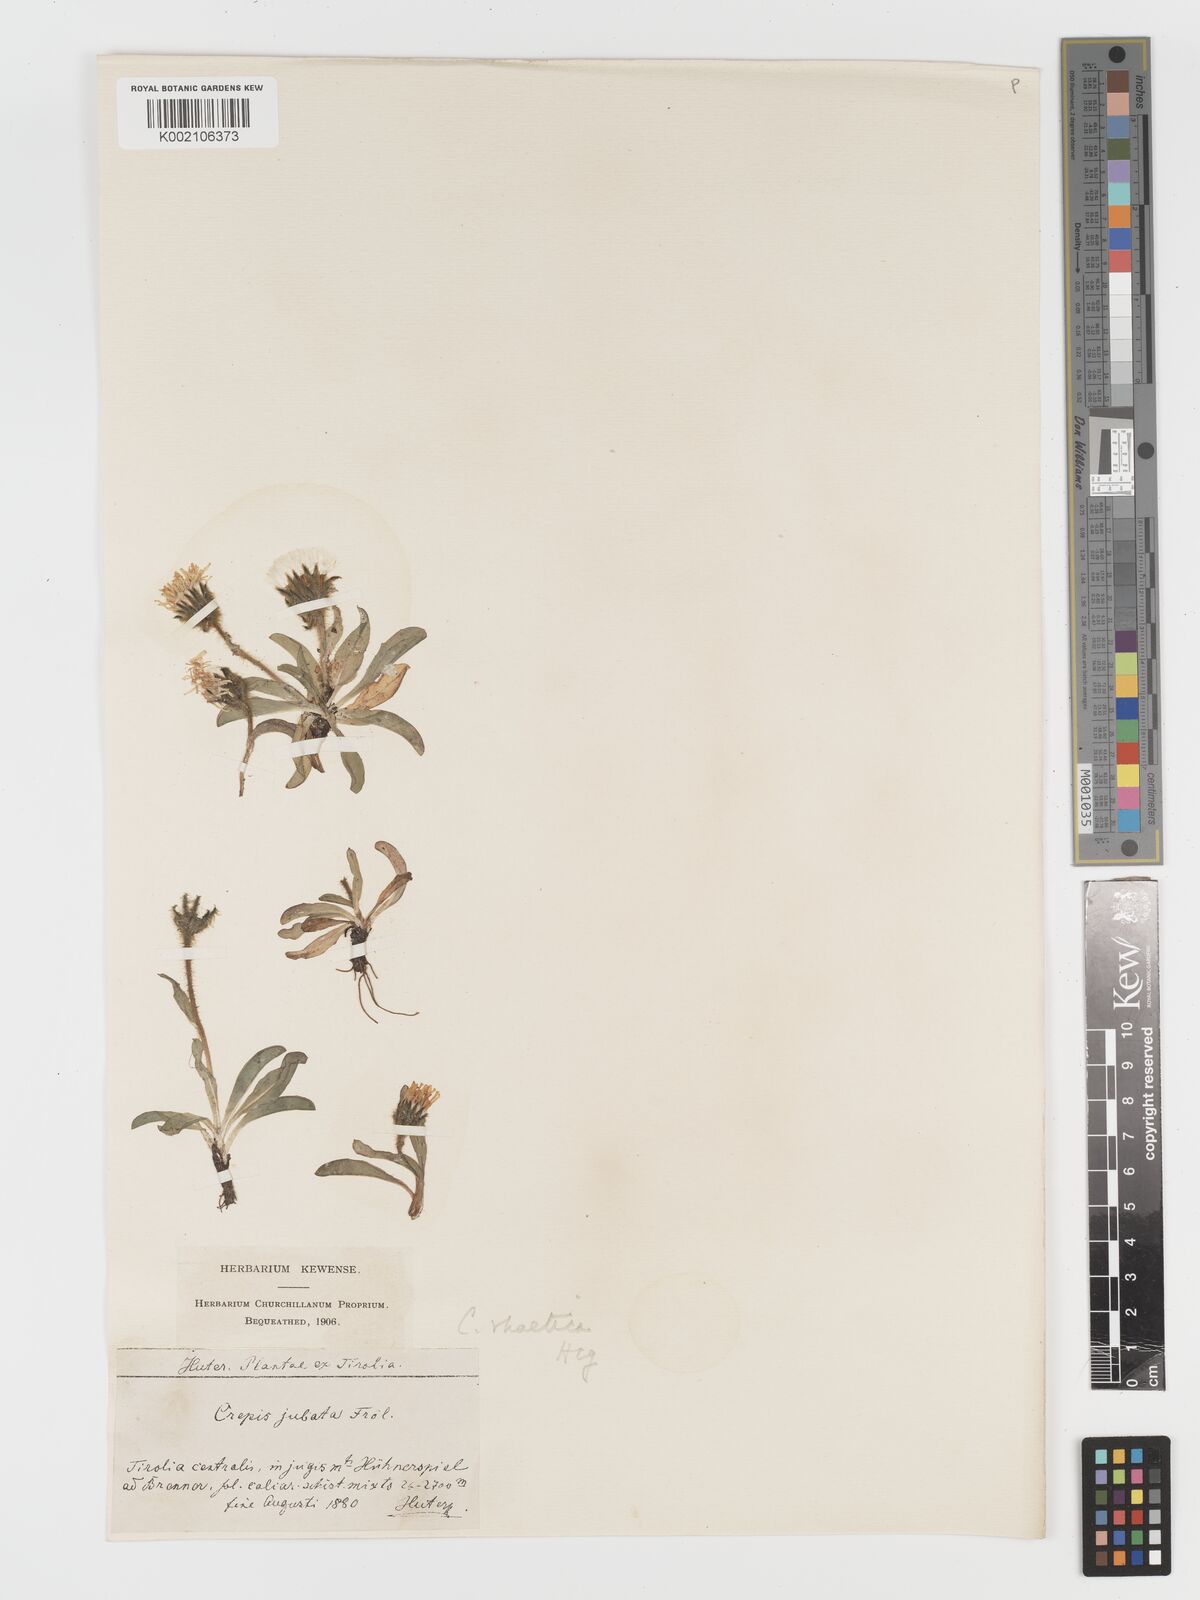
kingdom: Plantae
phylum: Tracheophyta
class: Magnoliopsida
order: Asterales
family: Asteraceae
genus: Crepis
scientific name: Crepis
